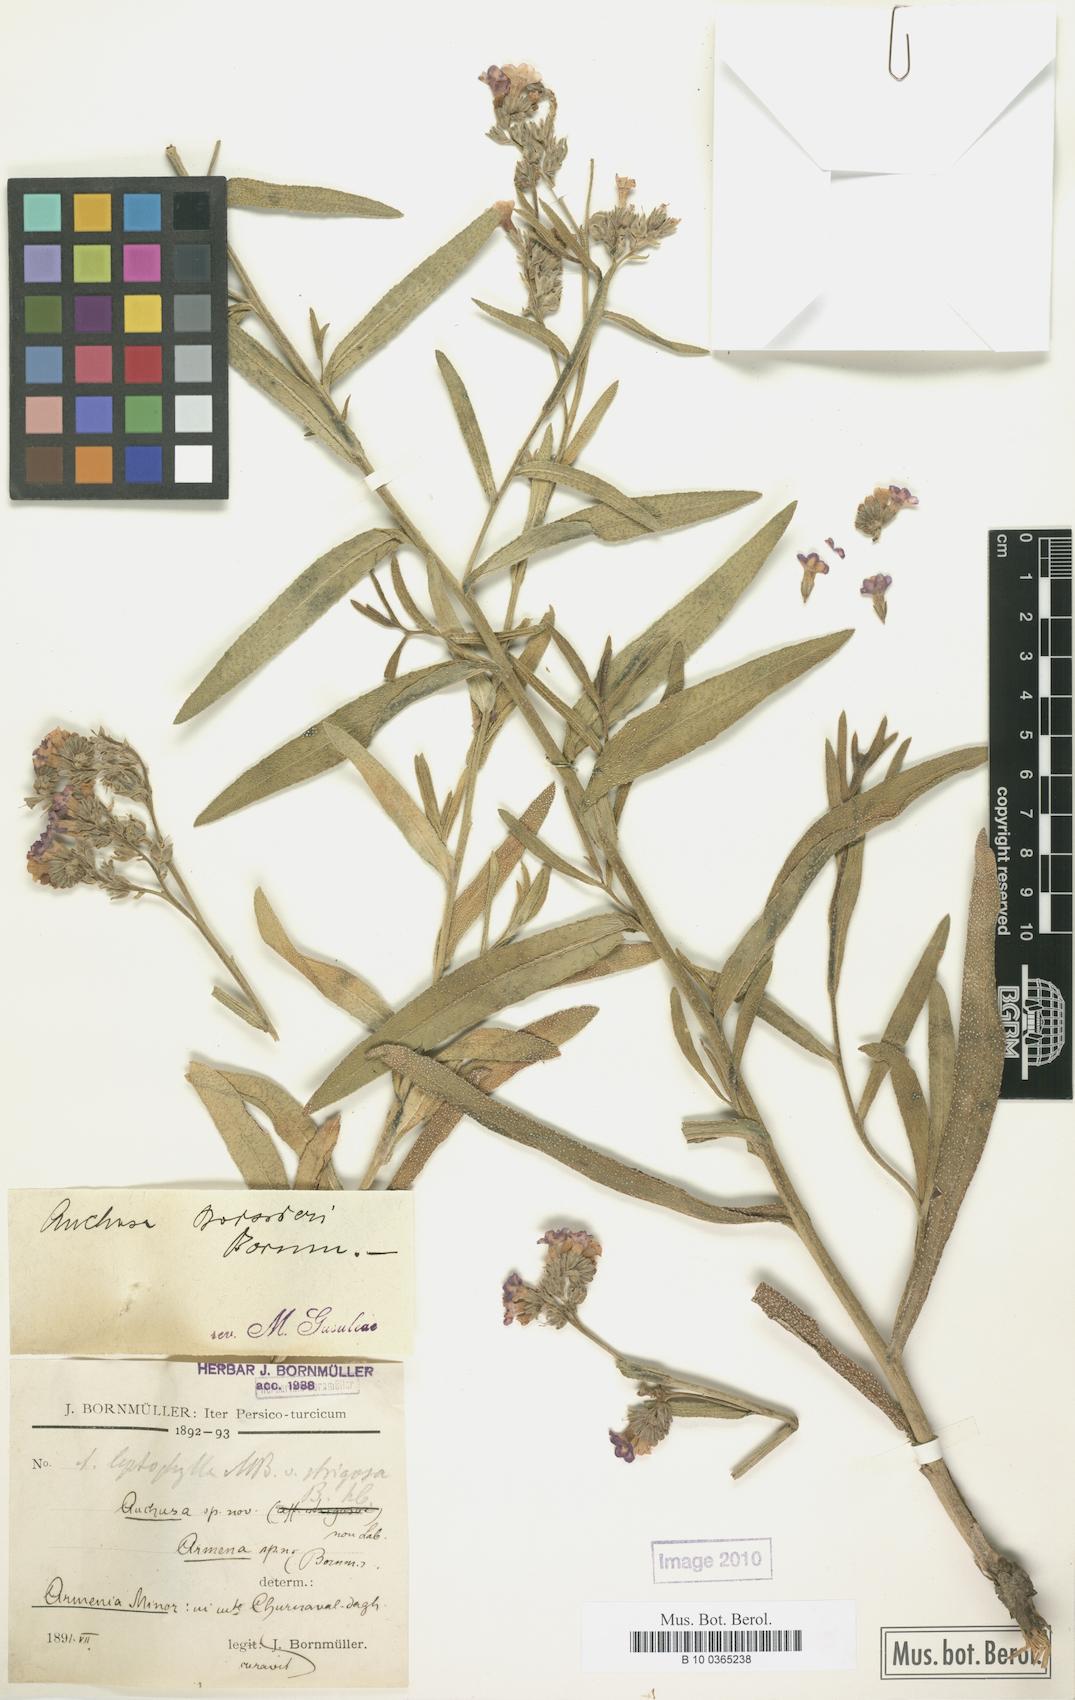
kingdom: Plantae
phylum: Tracheophyta
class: Magnoliopsida
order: Boraginales
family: Boraginaceae
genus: Anchusa
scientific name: Anchusa leptophylla
